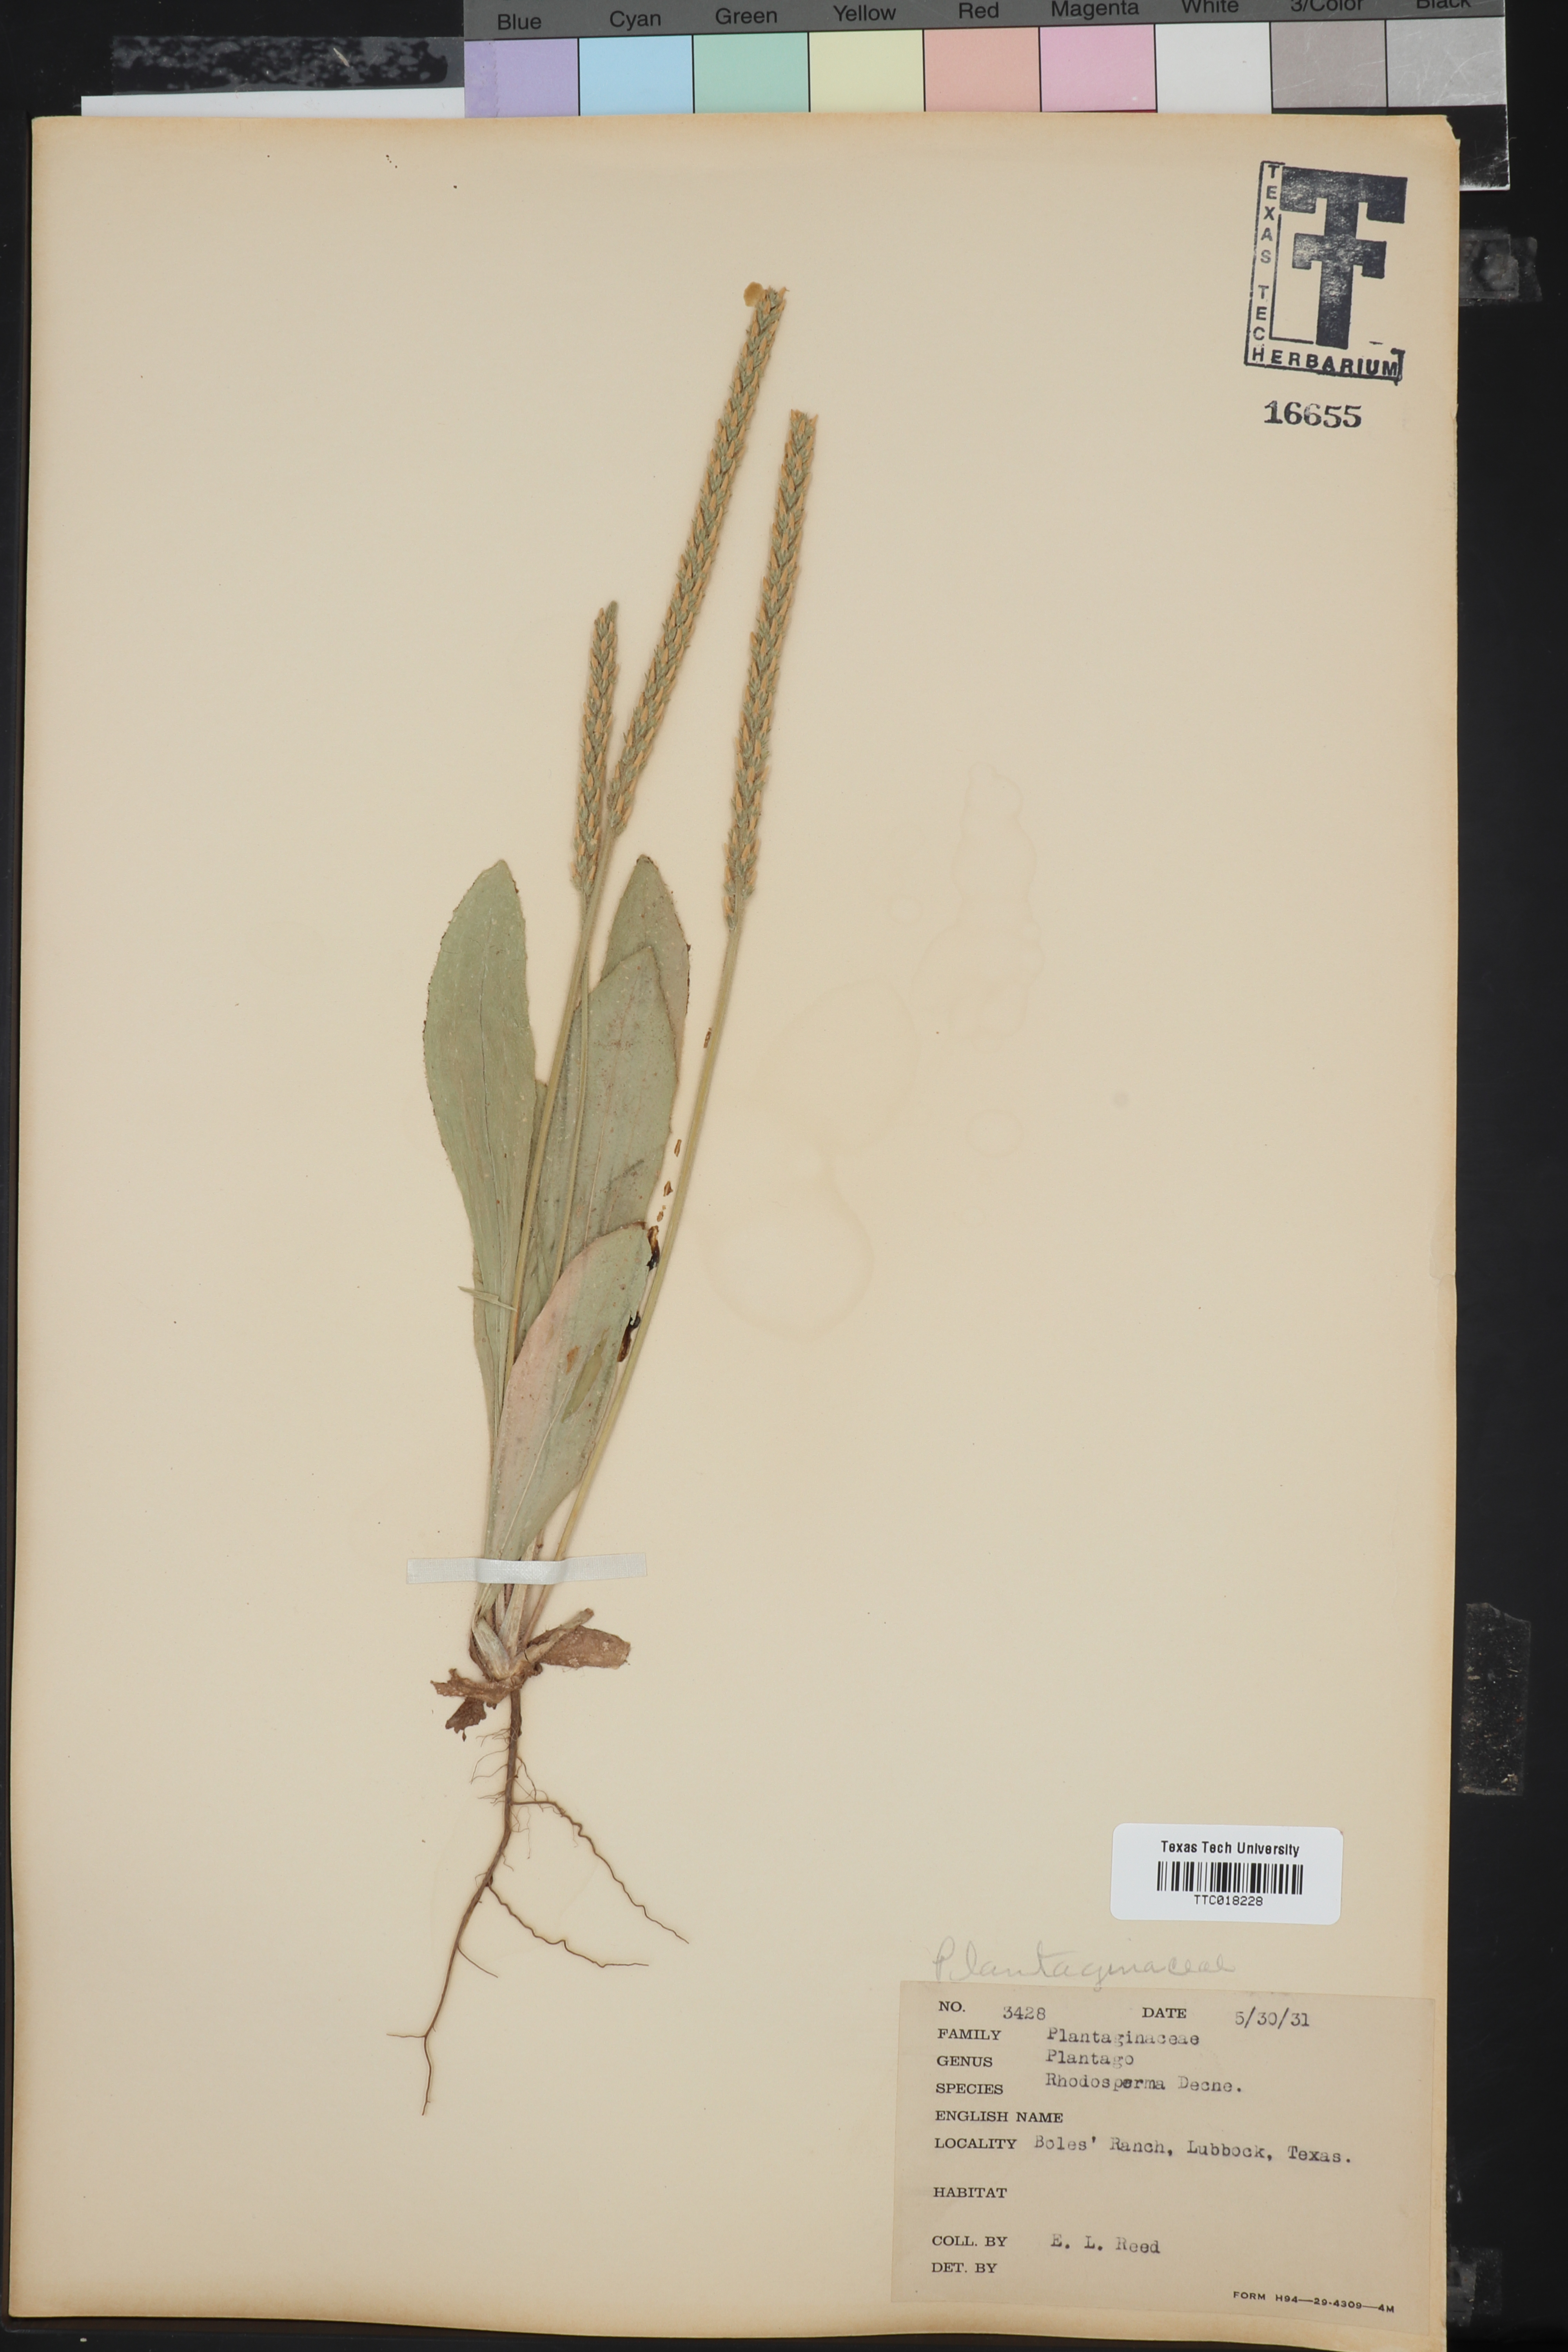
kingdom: Plantae
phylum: Tracheophyta
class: Magnoliopsida
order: Lamiales
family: Plantaginaceae
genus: Plantago
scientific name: Plantago rhodosperma
